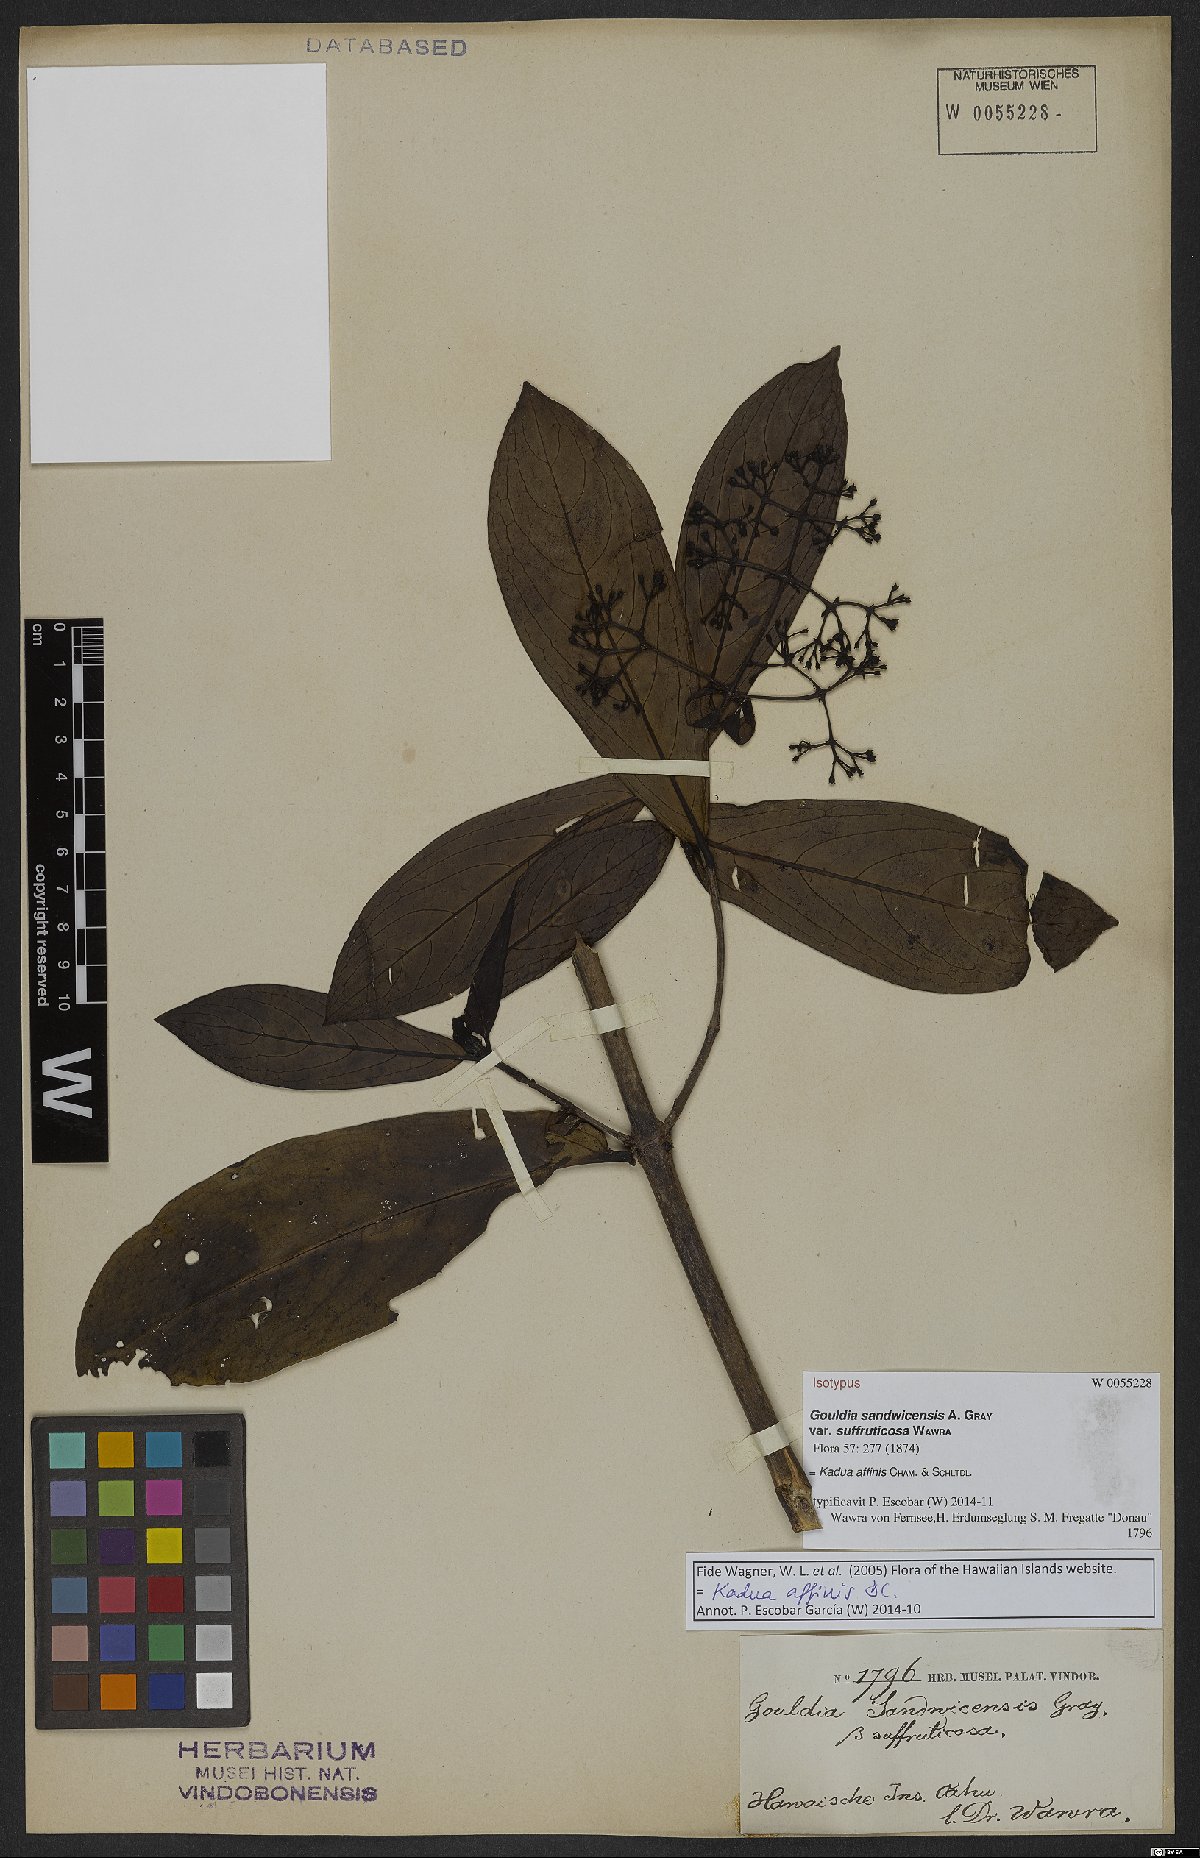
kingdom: Plantae
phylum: Tracheophyta
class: Magnoliopsida
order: Gentianales
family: Rubiaceae
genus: Kadua
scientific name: Kadua affinis
